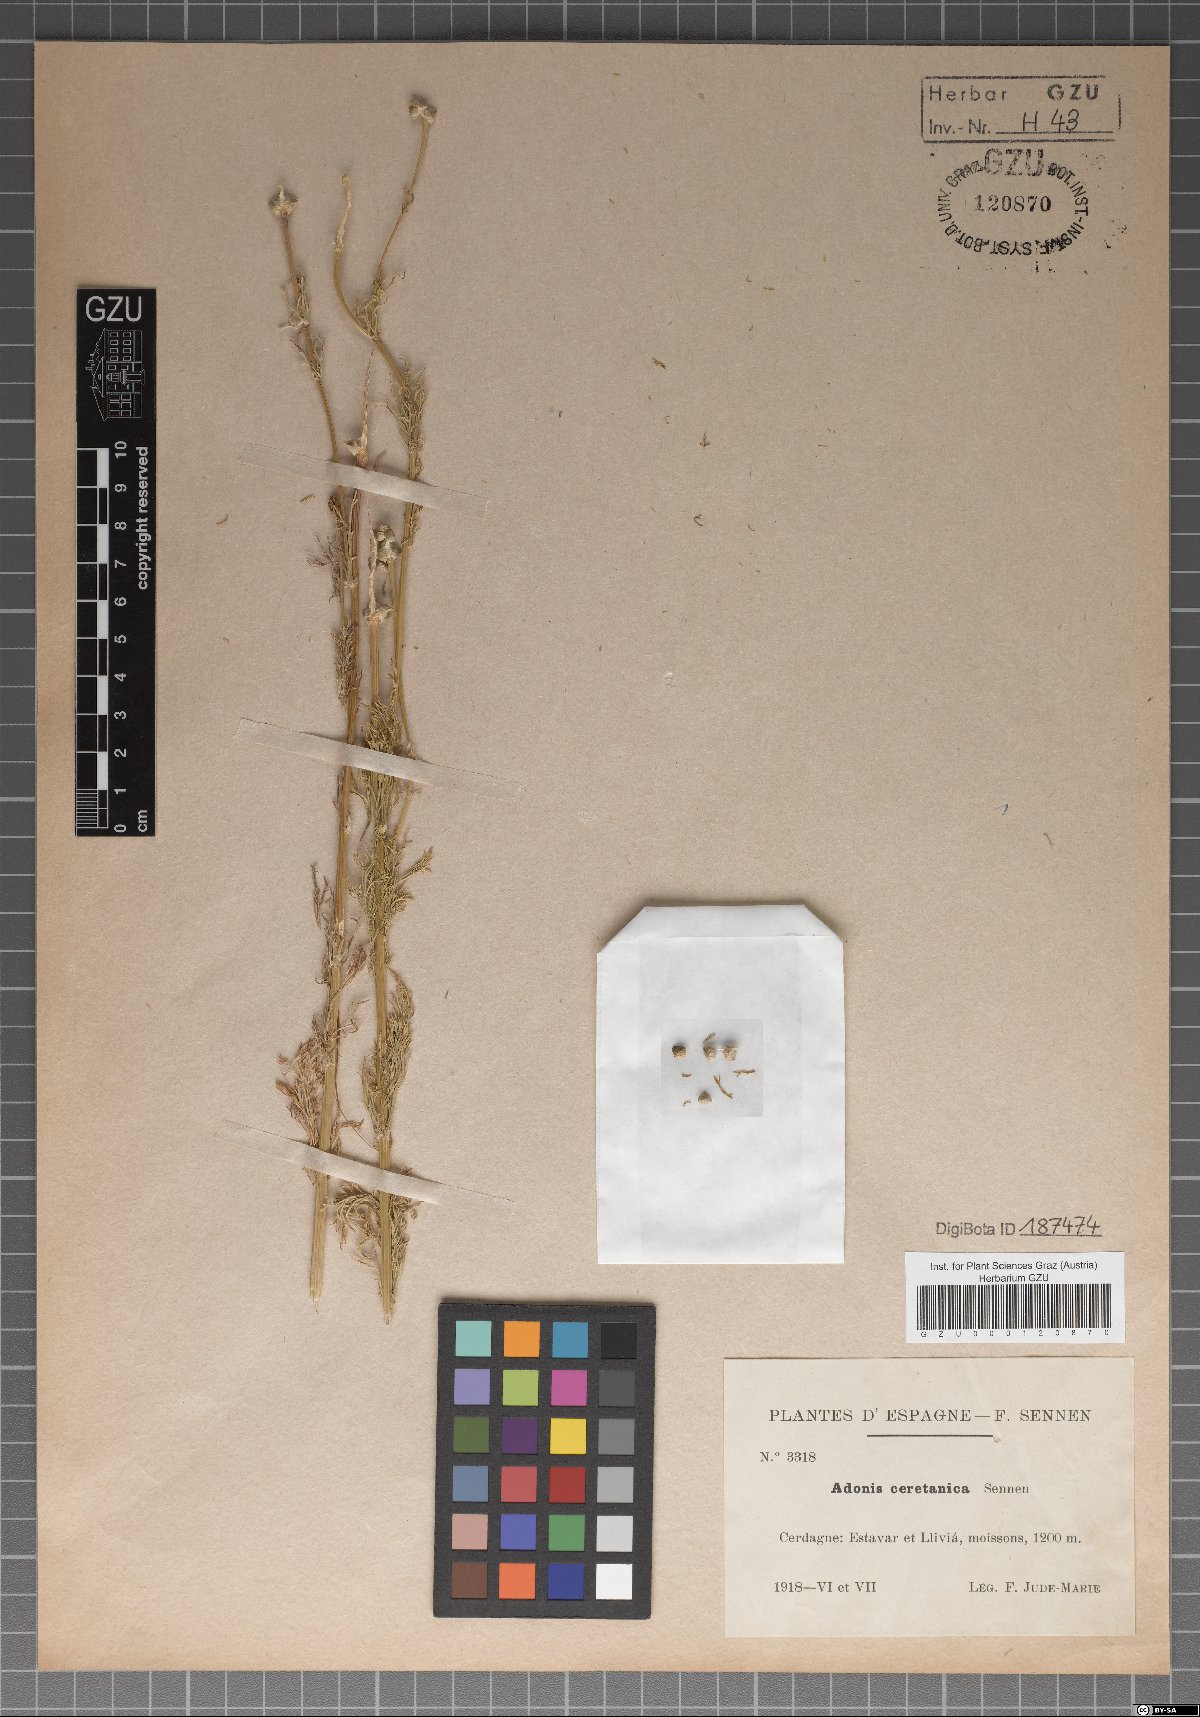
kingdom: Plantae
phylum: Tracheophyta
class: Magnoliopsida
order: Ranunculales
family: Ranunculaceae
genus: Adonis
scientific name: Adonis ceretana
